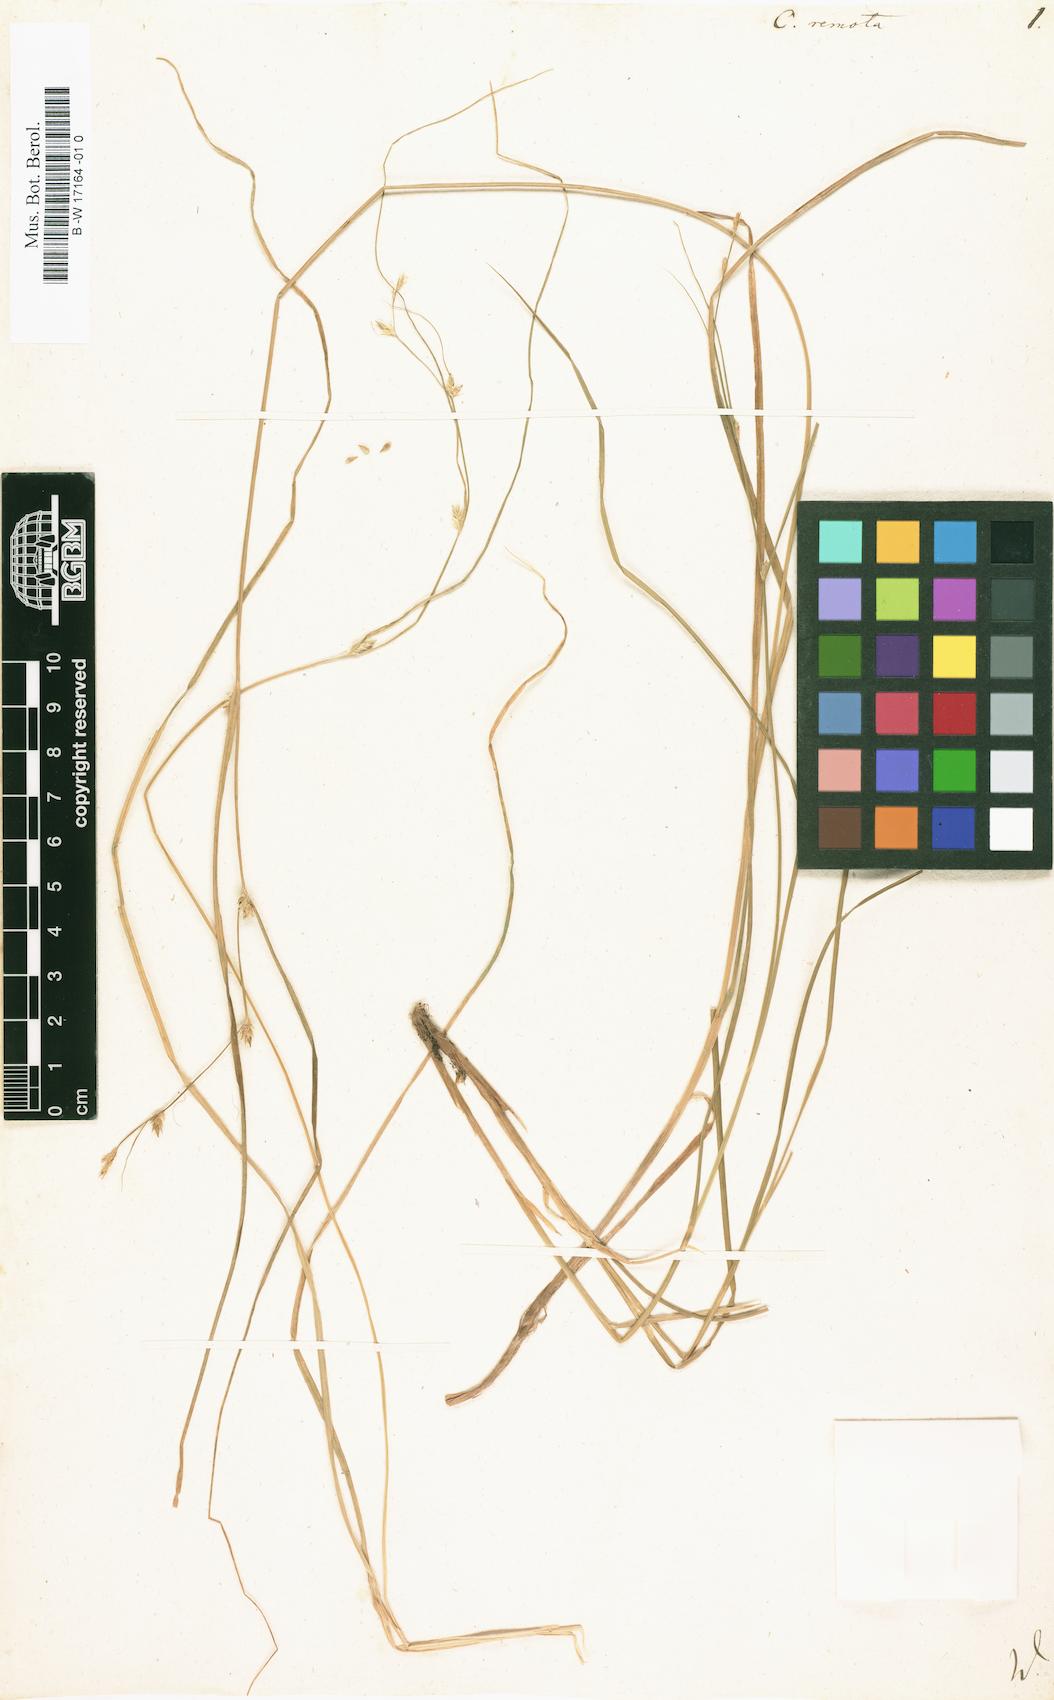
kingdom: Plantae
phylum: Tracheophyta
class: Liliopsida
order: Poales
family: Cyperaceae
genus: Carex
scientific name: Carex remota
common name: Remote sedge
